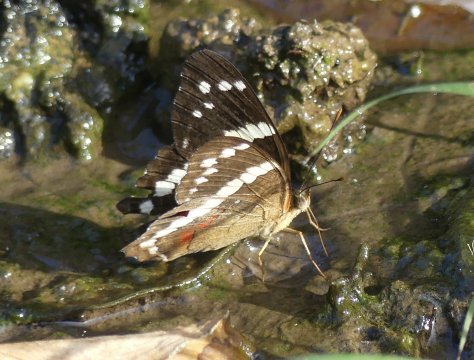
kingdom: Animalia
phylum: Arthropoda
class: Insecta
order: Lepidoptera
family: Nymphalidae
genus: Anartia
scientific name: Anartia fatima
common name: Banded Peacock
